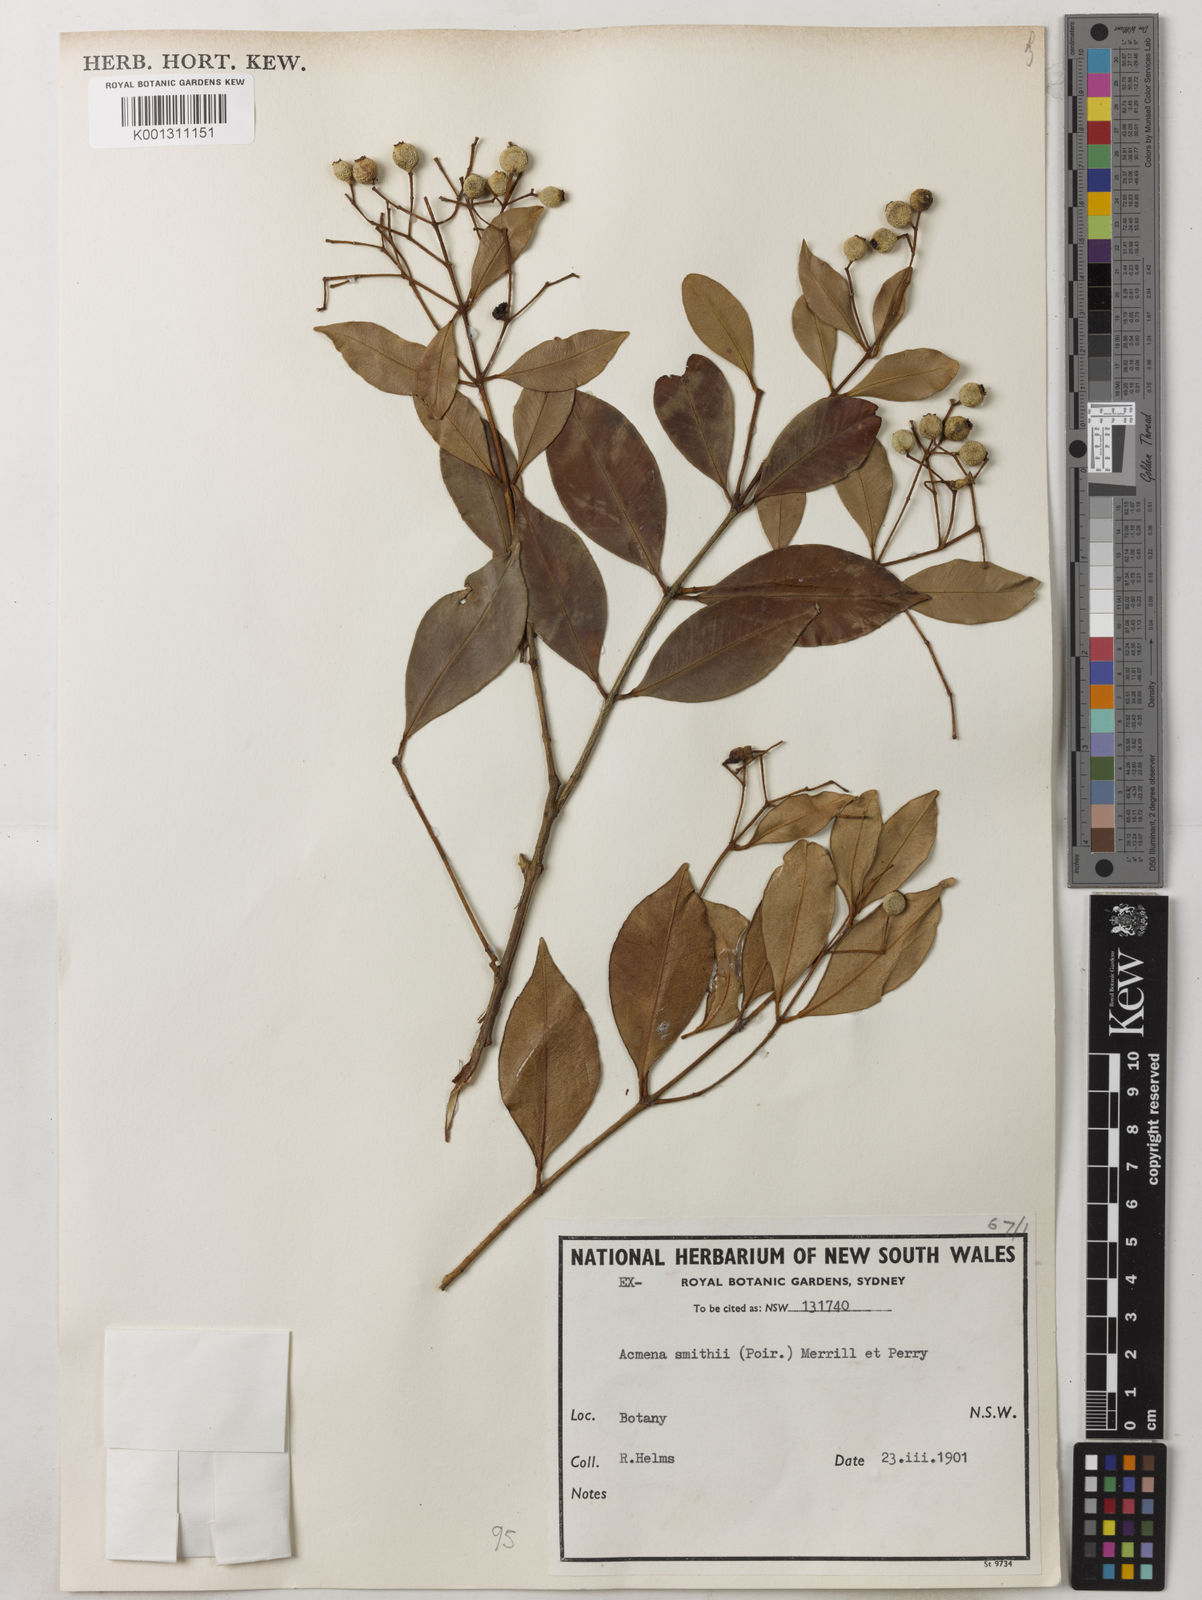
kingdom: Plantae
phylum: Tracheophyta
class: Magnoliopsida
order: Myrtales
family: Myrtaceae
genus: Syzygium
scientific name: Syzygium smithii
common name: Lilly-pilly
